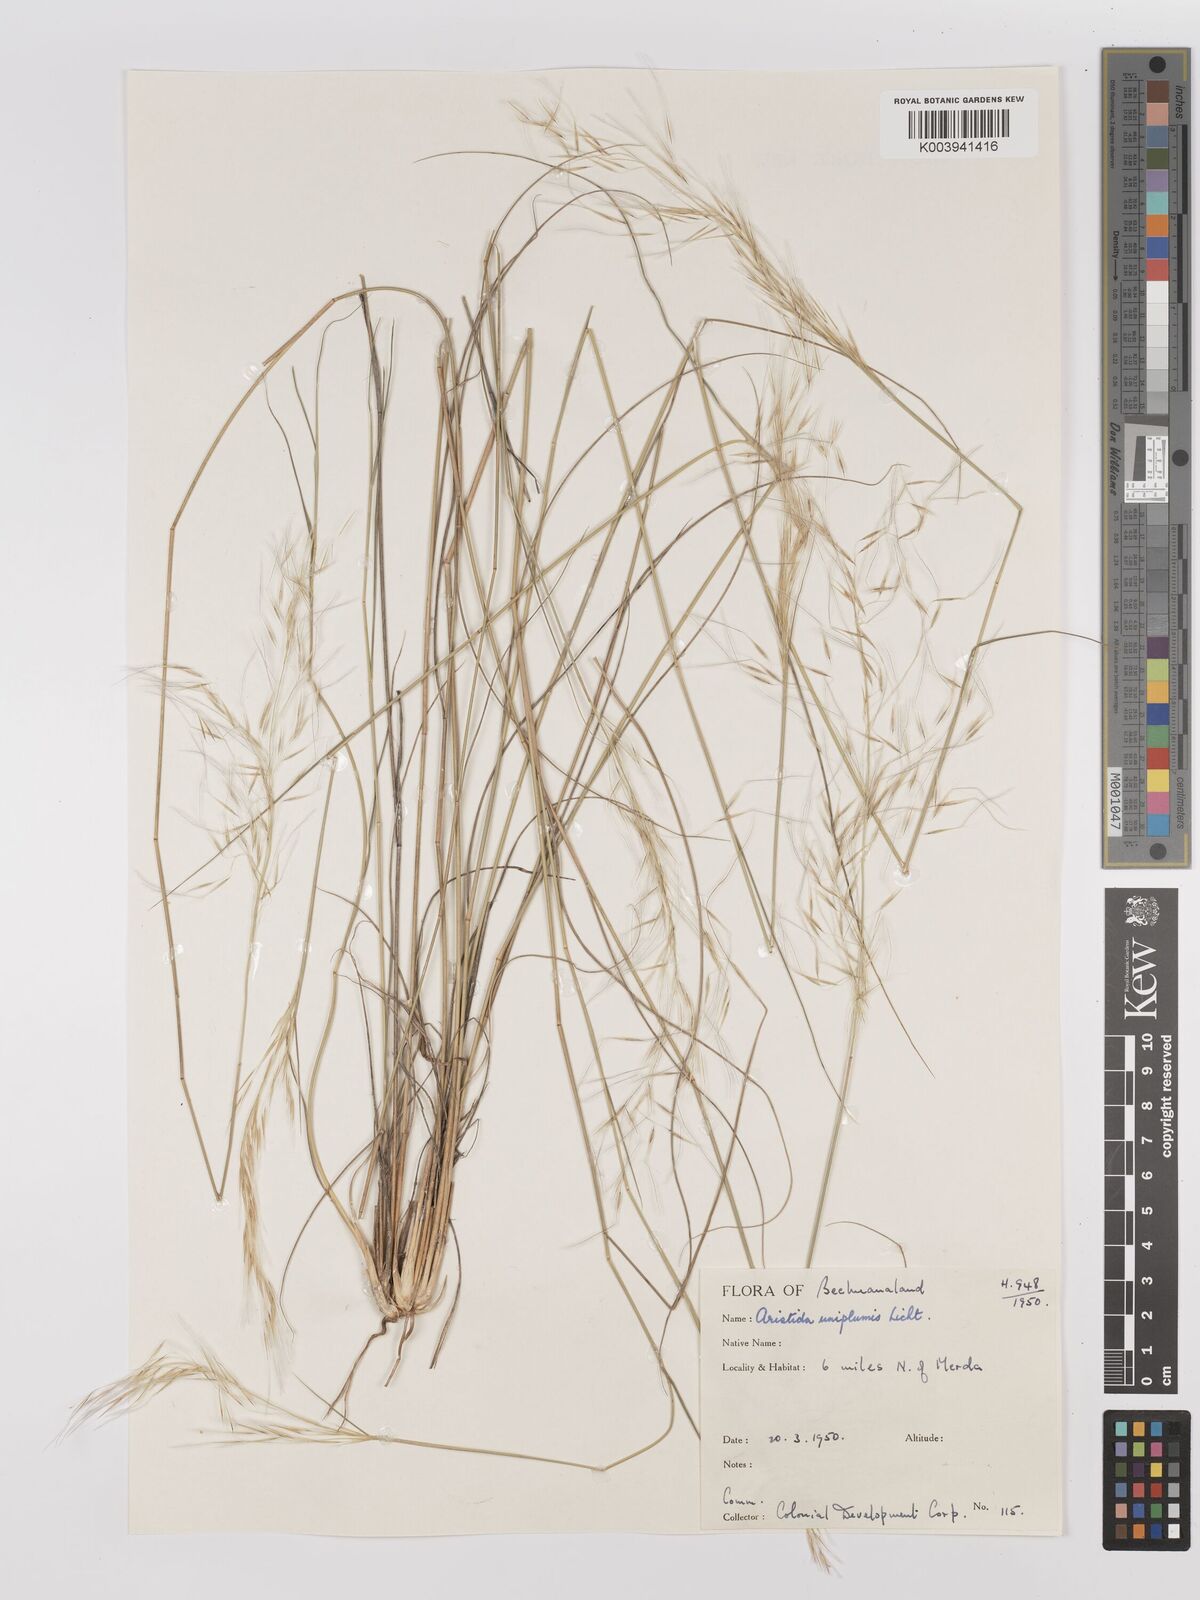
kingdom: Plantae
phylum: Tracheophyta
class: Liliopsida
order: Poales
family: Poaceae
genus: Stipagrostis
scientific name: Stipagrostis uniplumis
